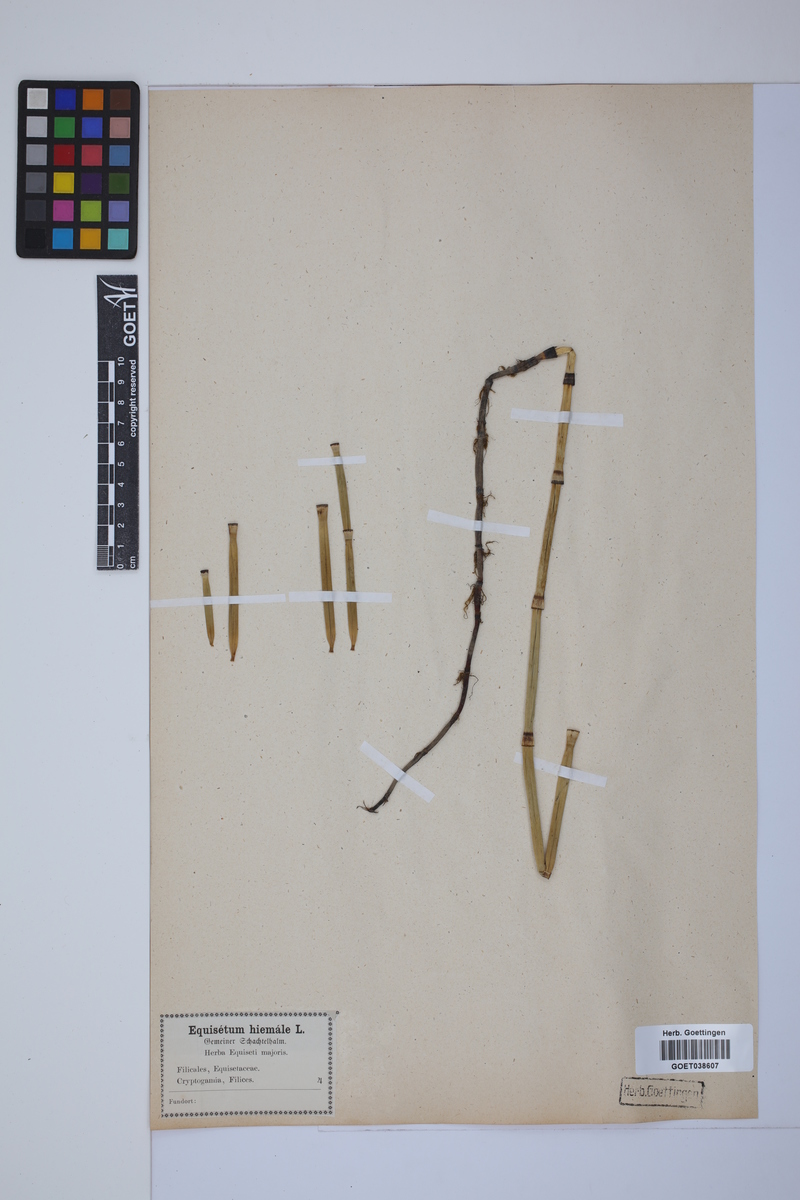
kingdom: Plantae
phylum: Tracheophyta
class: Polypodiopsida
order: Equisetales
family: Equisetaceae
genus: Equisetum
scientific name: Equisetum hyemale
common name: Rough horsetail
